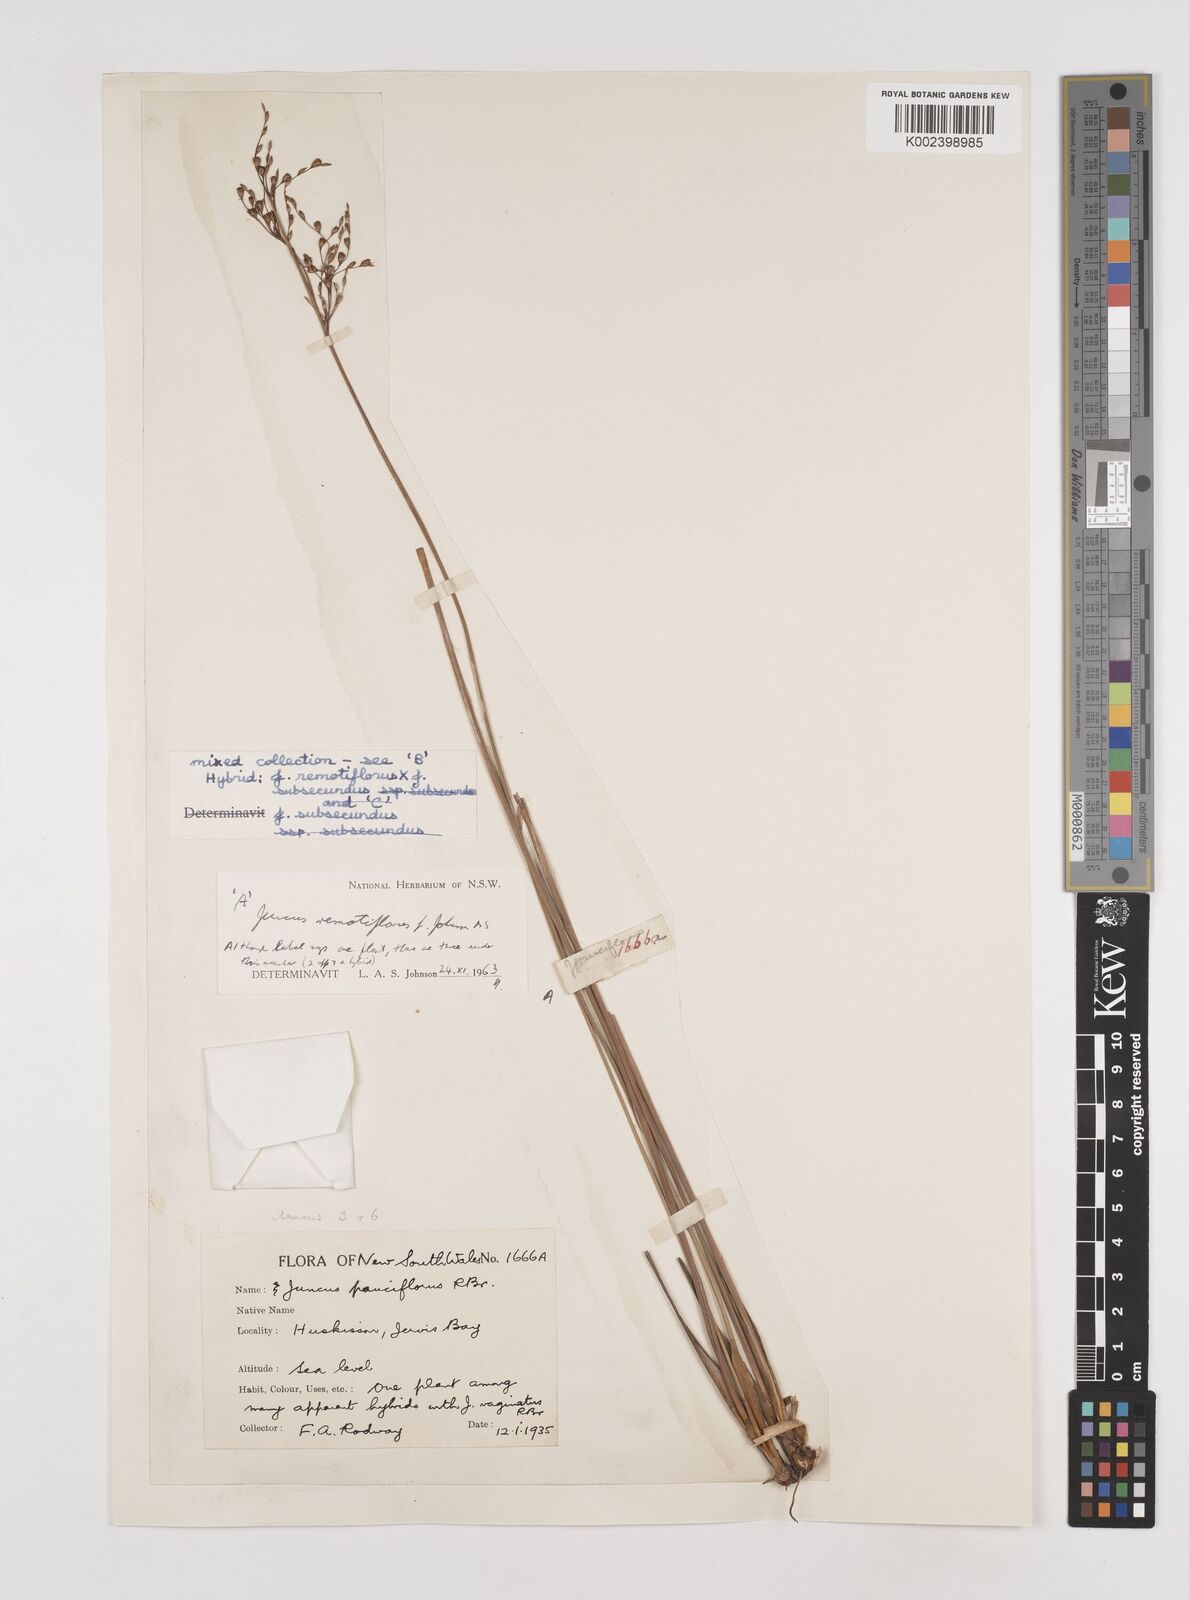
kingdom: Plantae
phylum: Tracheophyta
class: Liliopsida
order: Poales
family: Juncaceae
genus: Juncus
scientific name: Juncus remotiflorus
